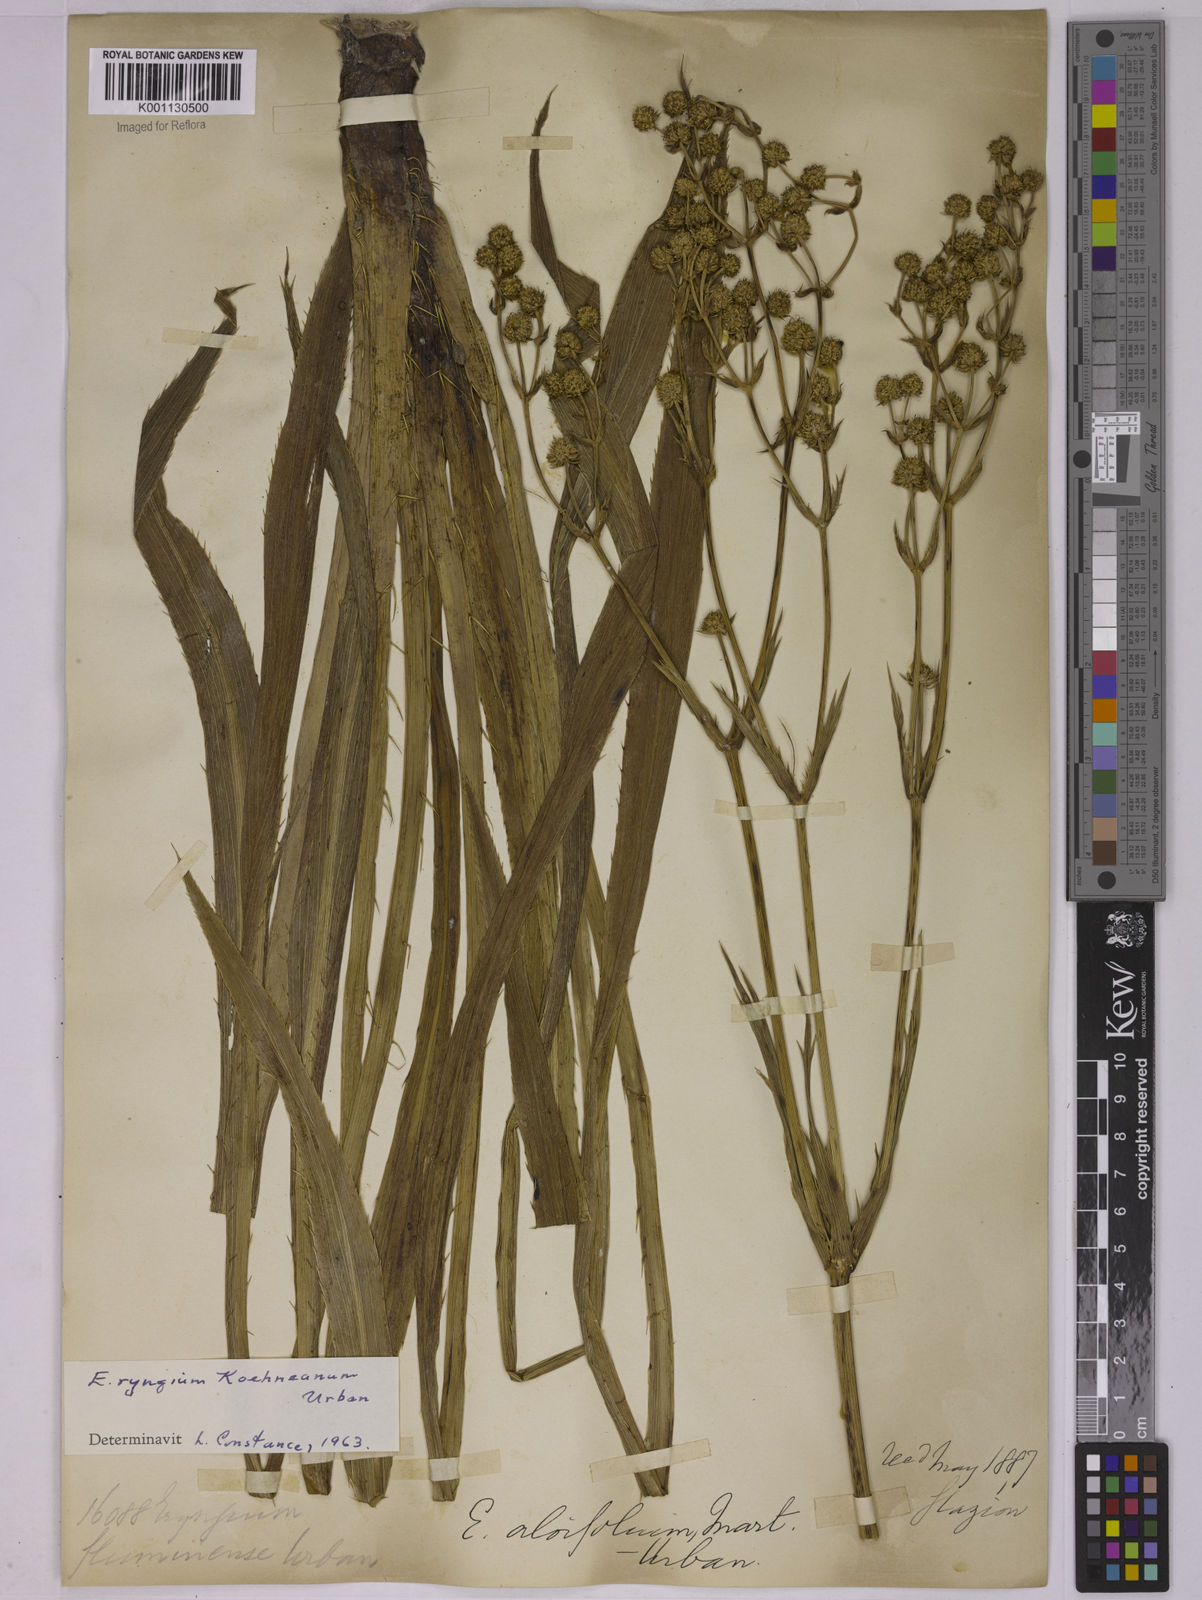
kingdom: Plantae
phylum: Tracheophyta
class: Magnoliopsida
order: Apiales
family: Apiaceae
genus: Eryngium
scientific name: Eryngium koehneanum
